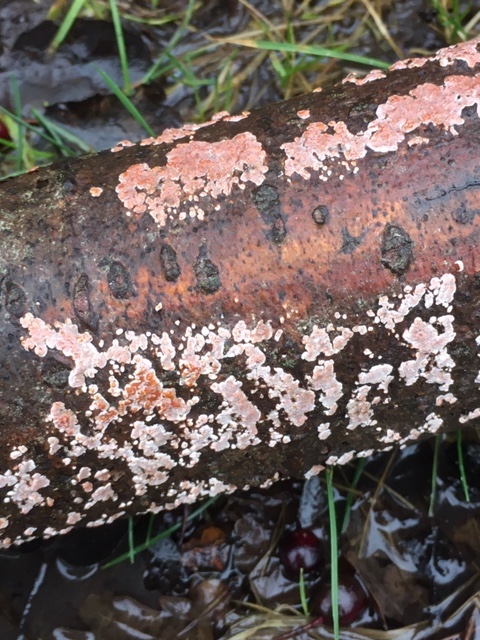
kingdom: Fungi
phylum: Basidiomycota
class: Agaricomycetes
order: Russulales
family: Peniophoraceae
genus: Peniophora
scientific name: Peniophora polygonia
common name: polygon-voksskind
